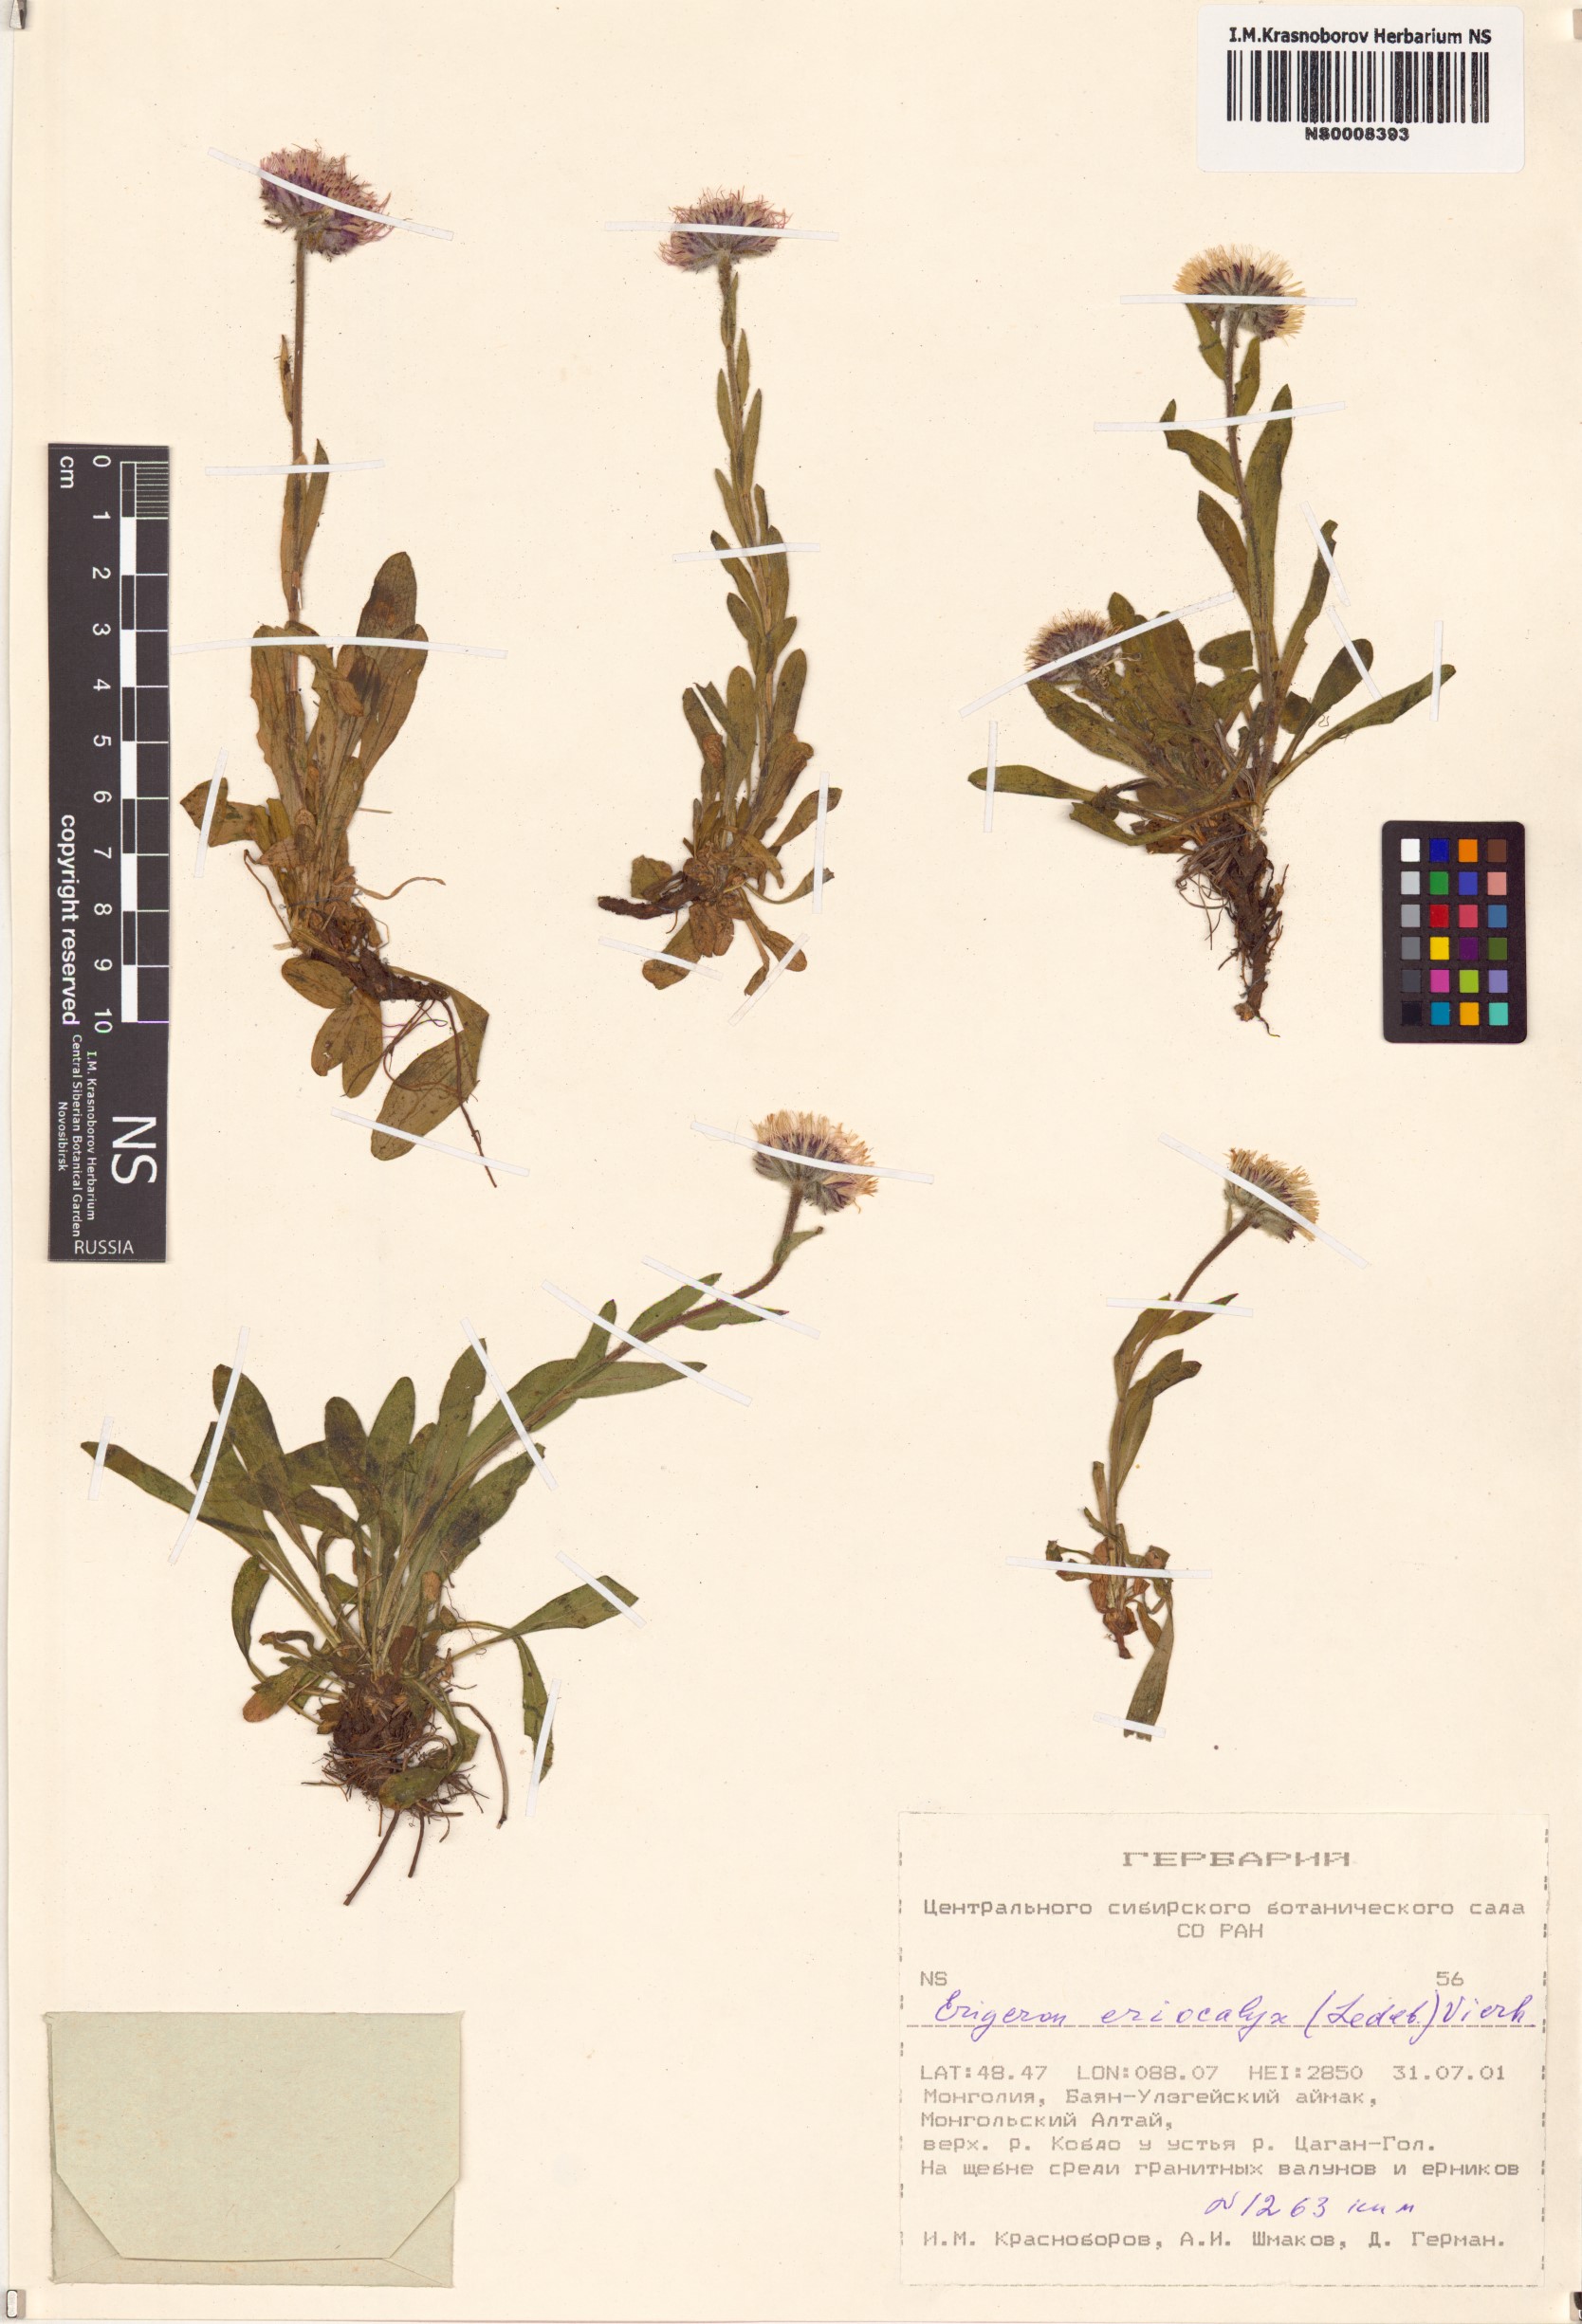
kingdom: Plantae
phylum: Tracheophyta
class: Magnoliopsida
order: Asterales
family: Asteraceae
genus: Erigeron
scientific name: Erigeron eriocalyx
